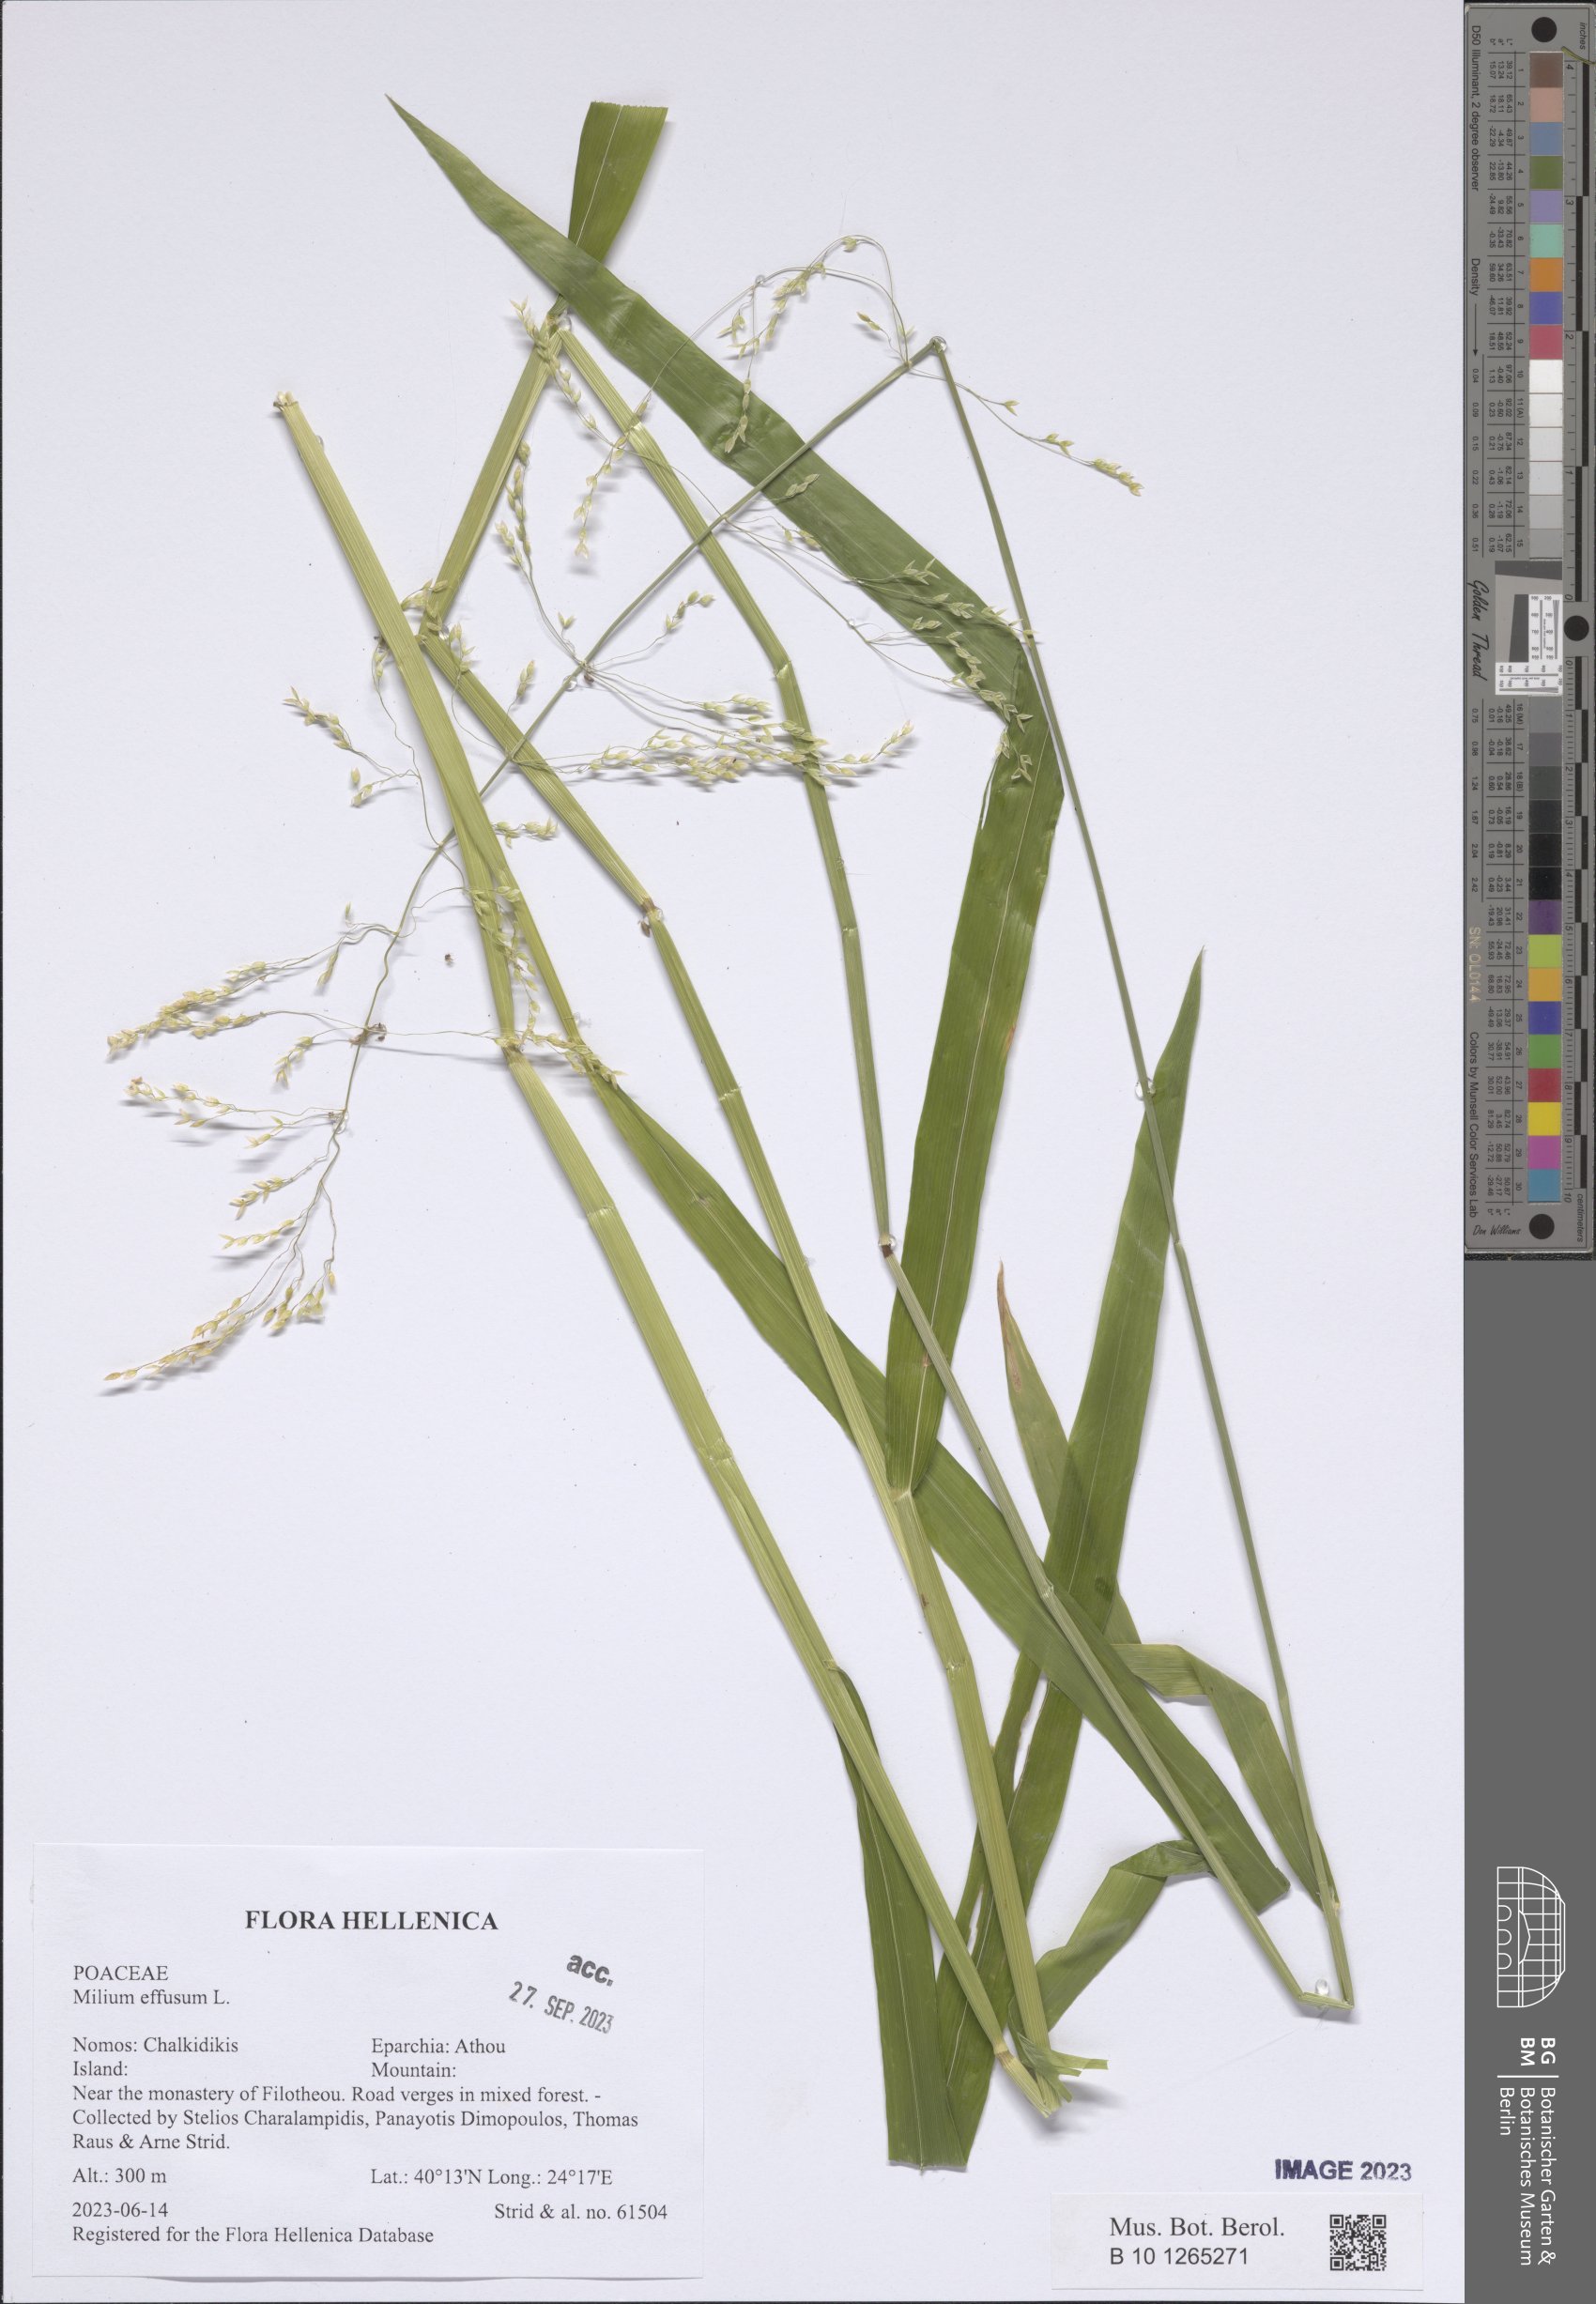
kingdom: Plantae
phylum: Tracheophyta
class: Liliopsida
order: Poales
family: Poaceae
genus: Milium
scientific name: Milium effusum
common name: Wood millet
